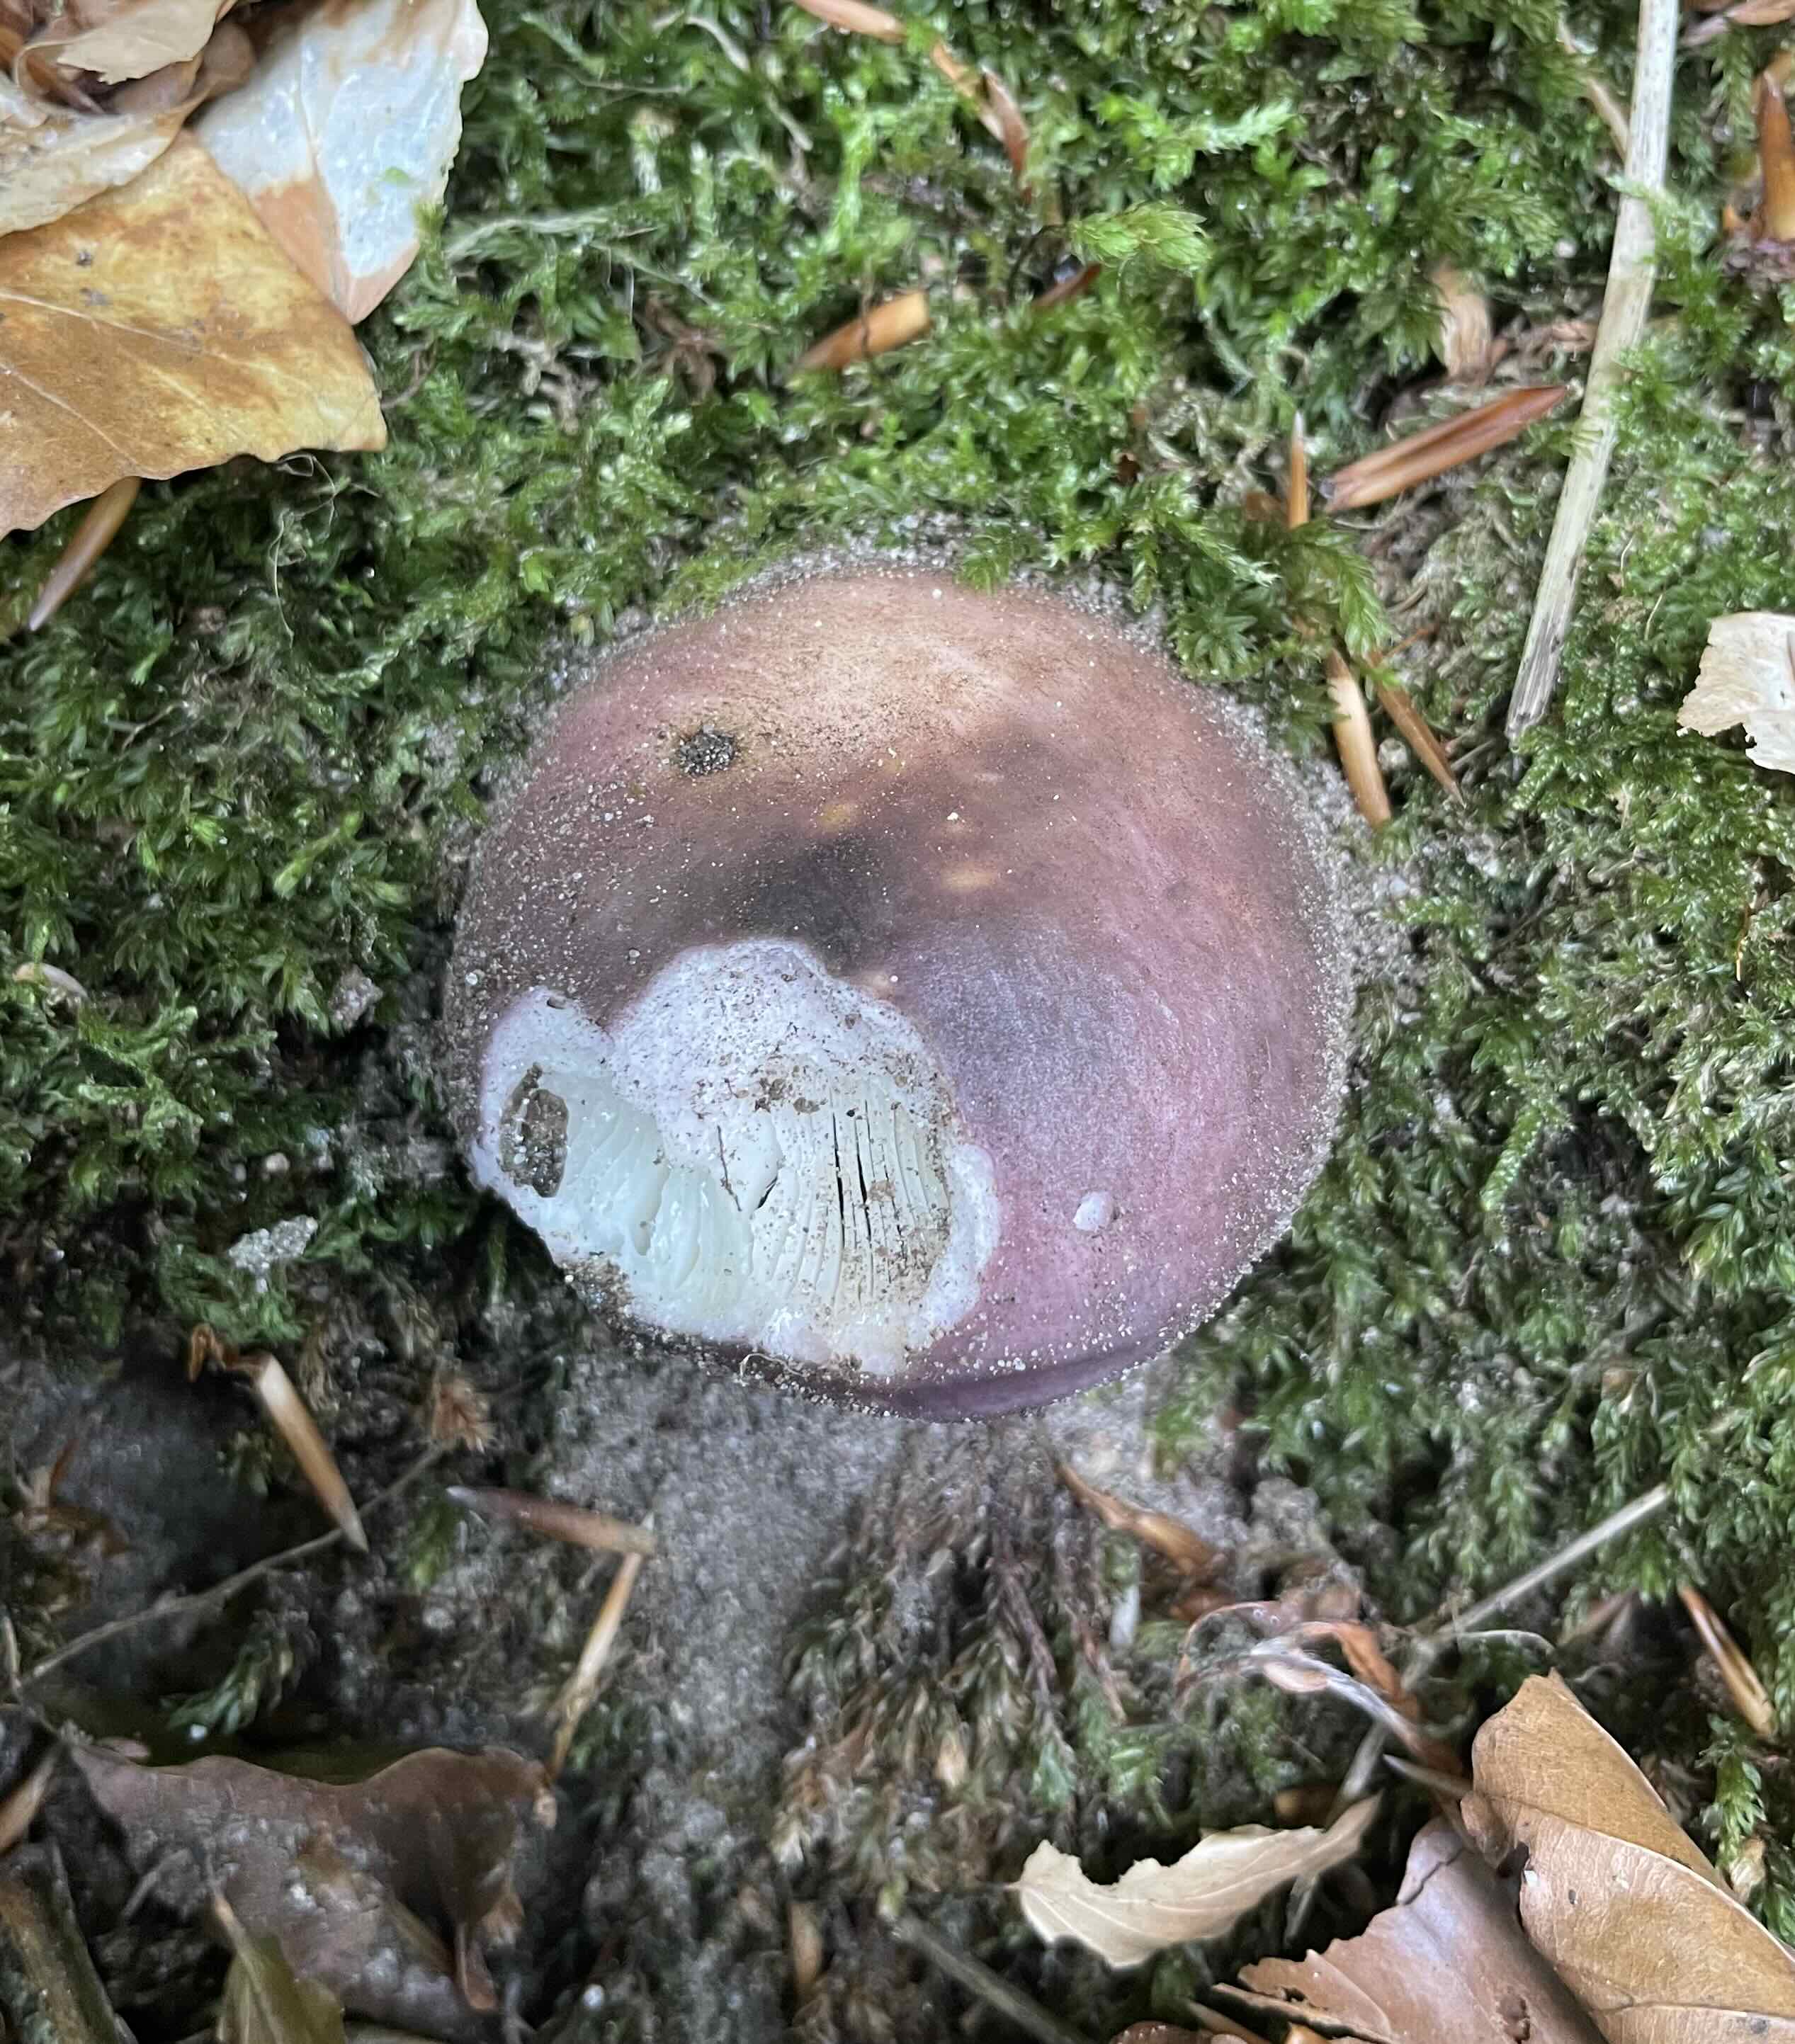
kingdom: Fungi
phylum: Basidiomycota
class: Agaricomycetes
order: Russulales
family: Russulaceae
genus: Russula
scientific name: Russula cyanoxantha
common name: broget skørhat
